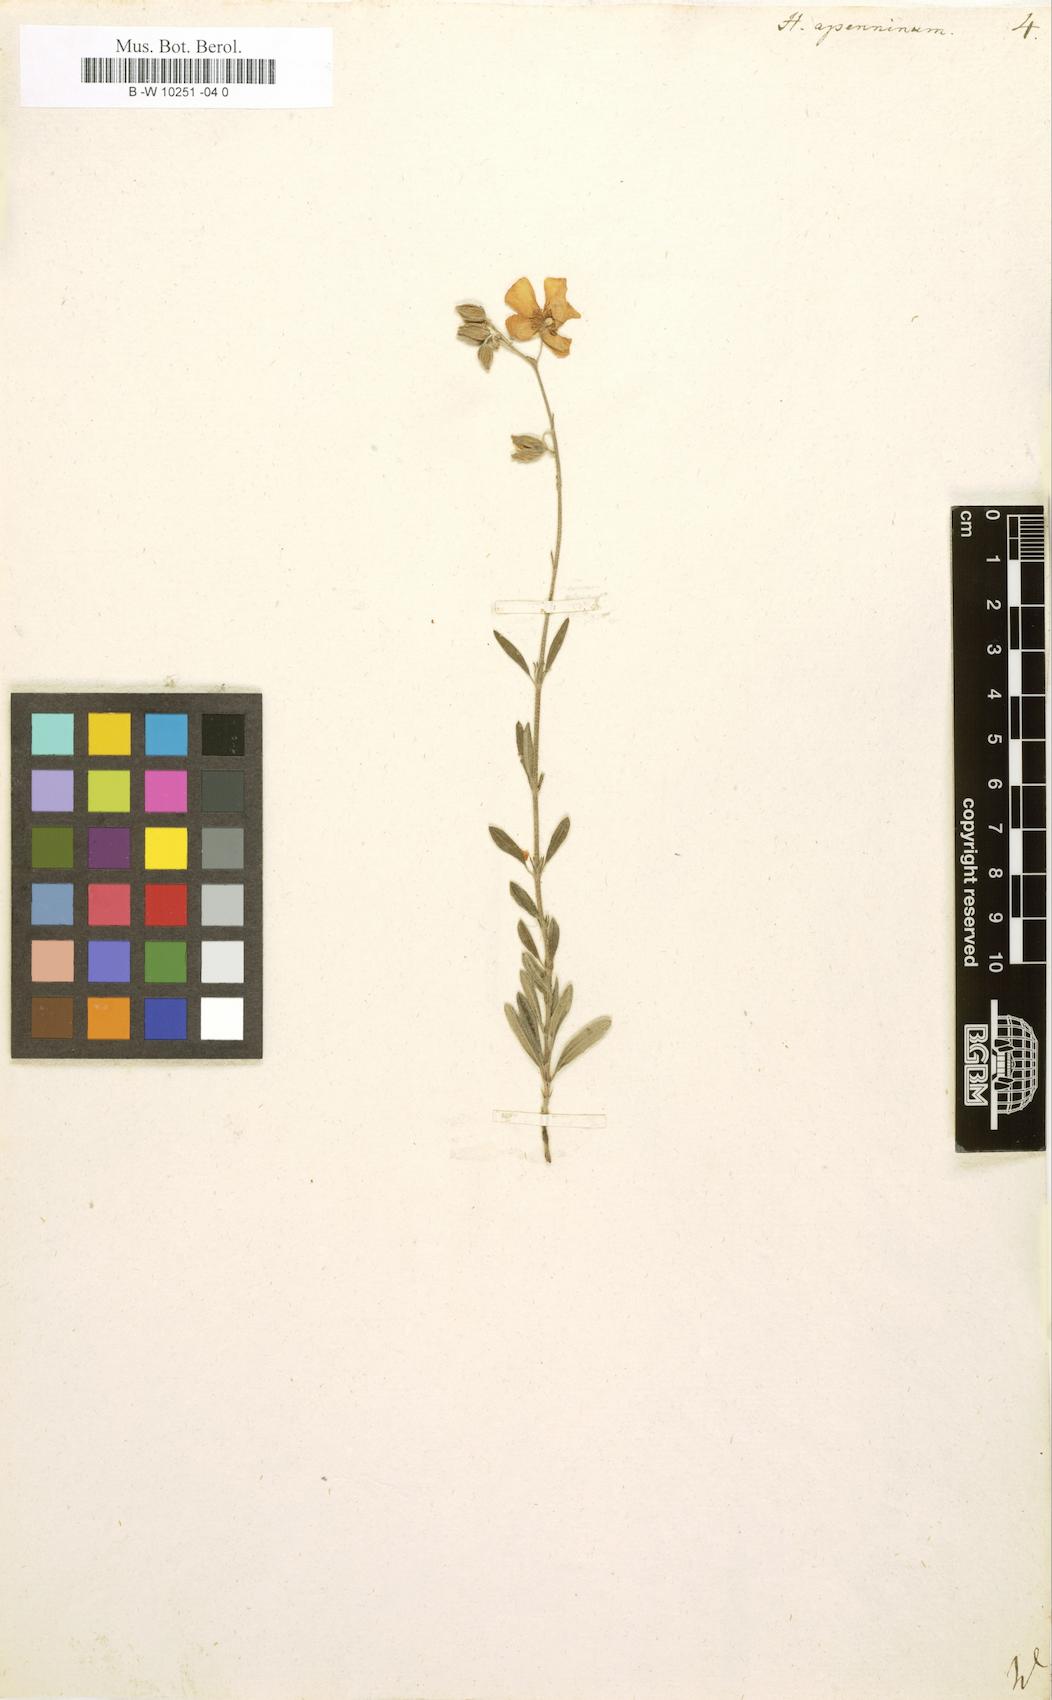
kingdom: Plantae
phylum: Tracheophyta
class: Magnoliopsida
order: Malvales
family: Cistaceae
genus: Helianthemum
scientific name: Helianthemum apenninum
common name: White rock-rose
